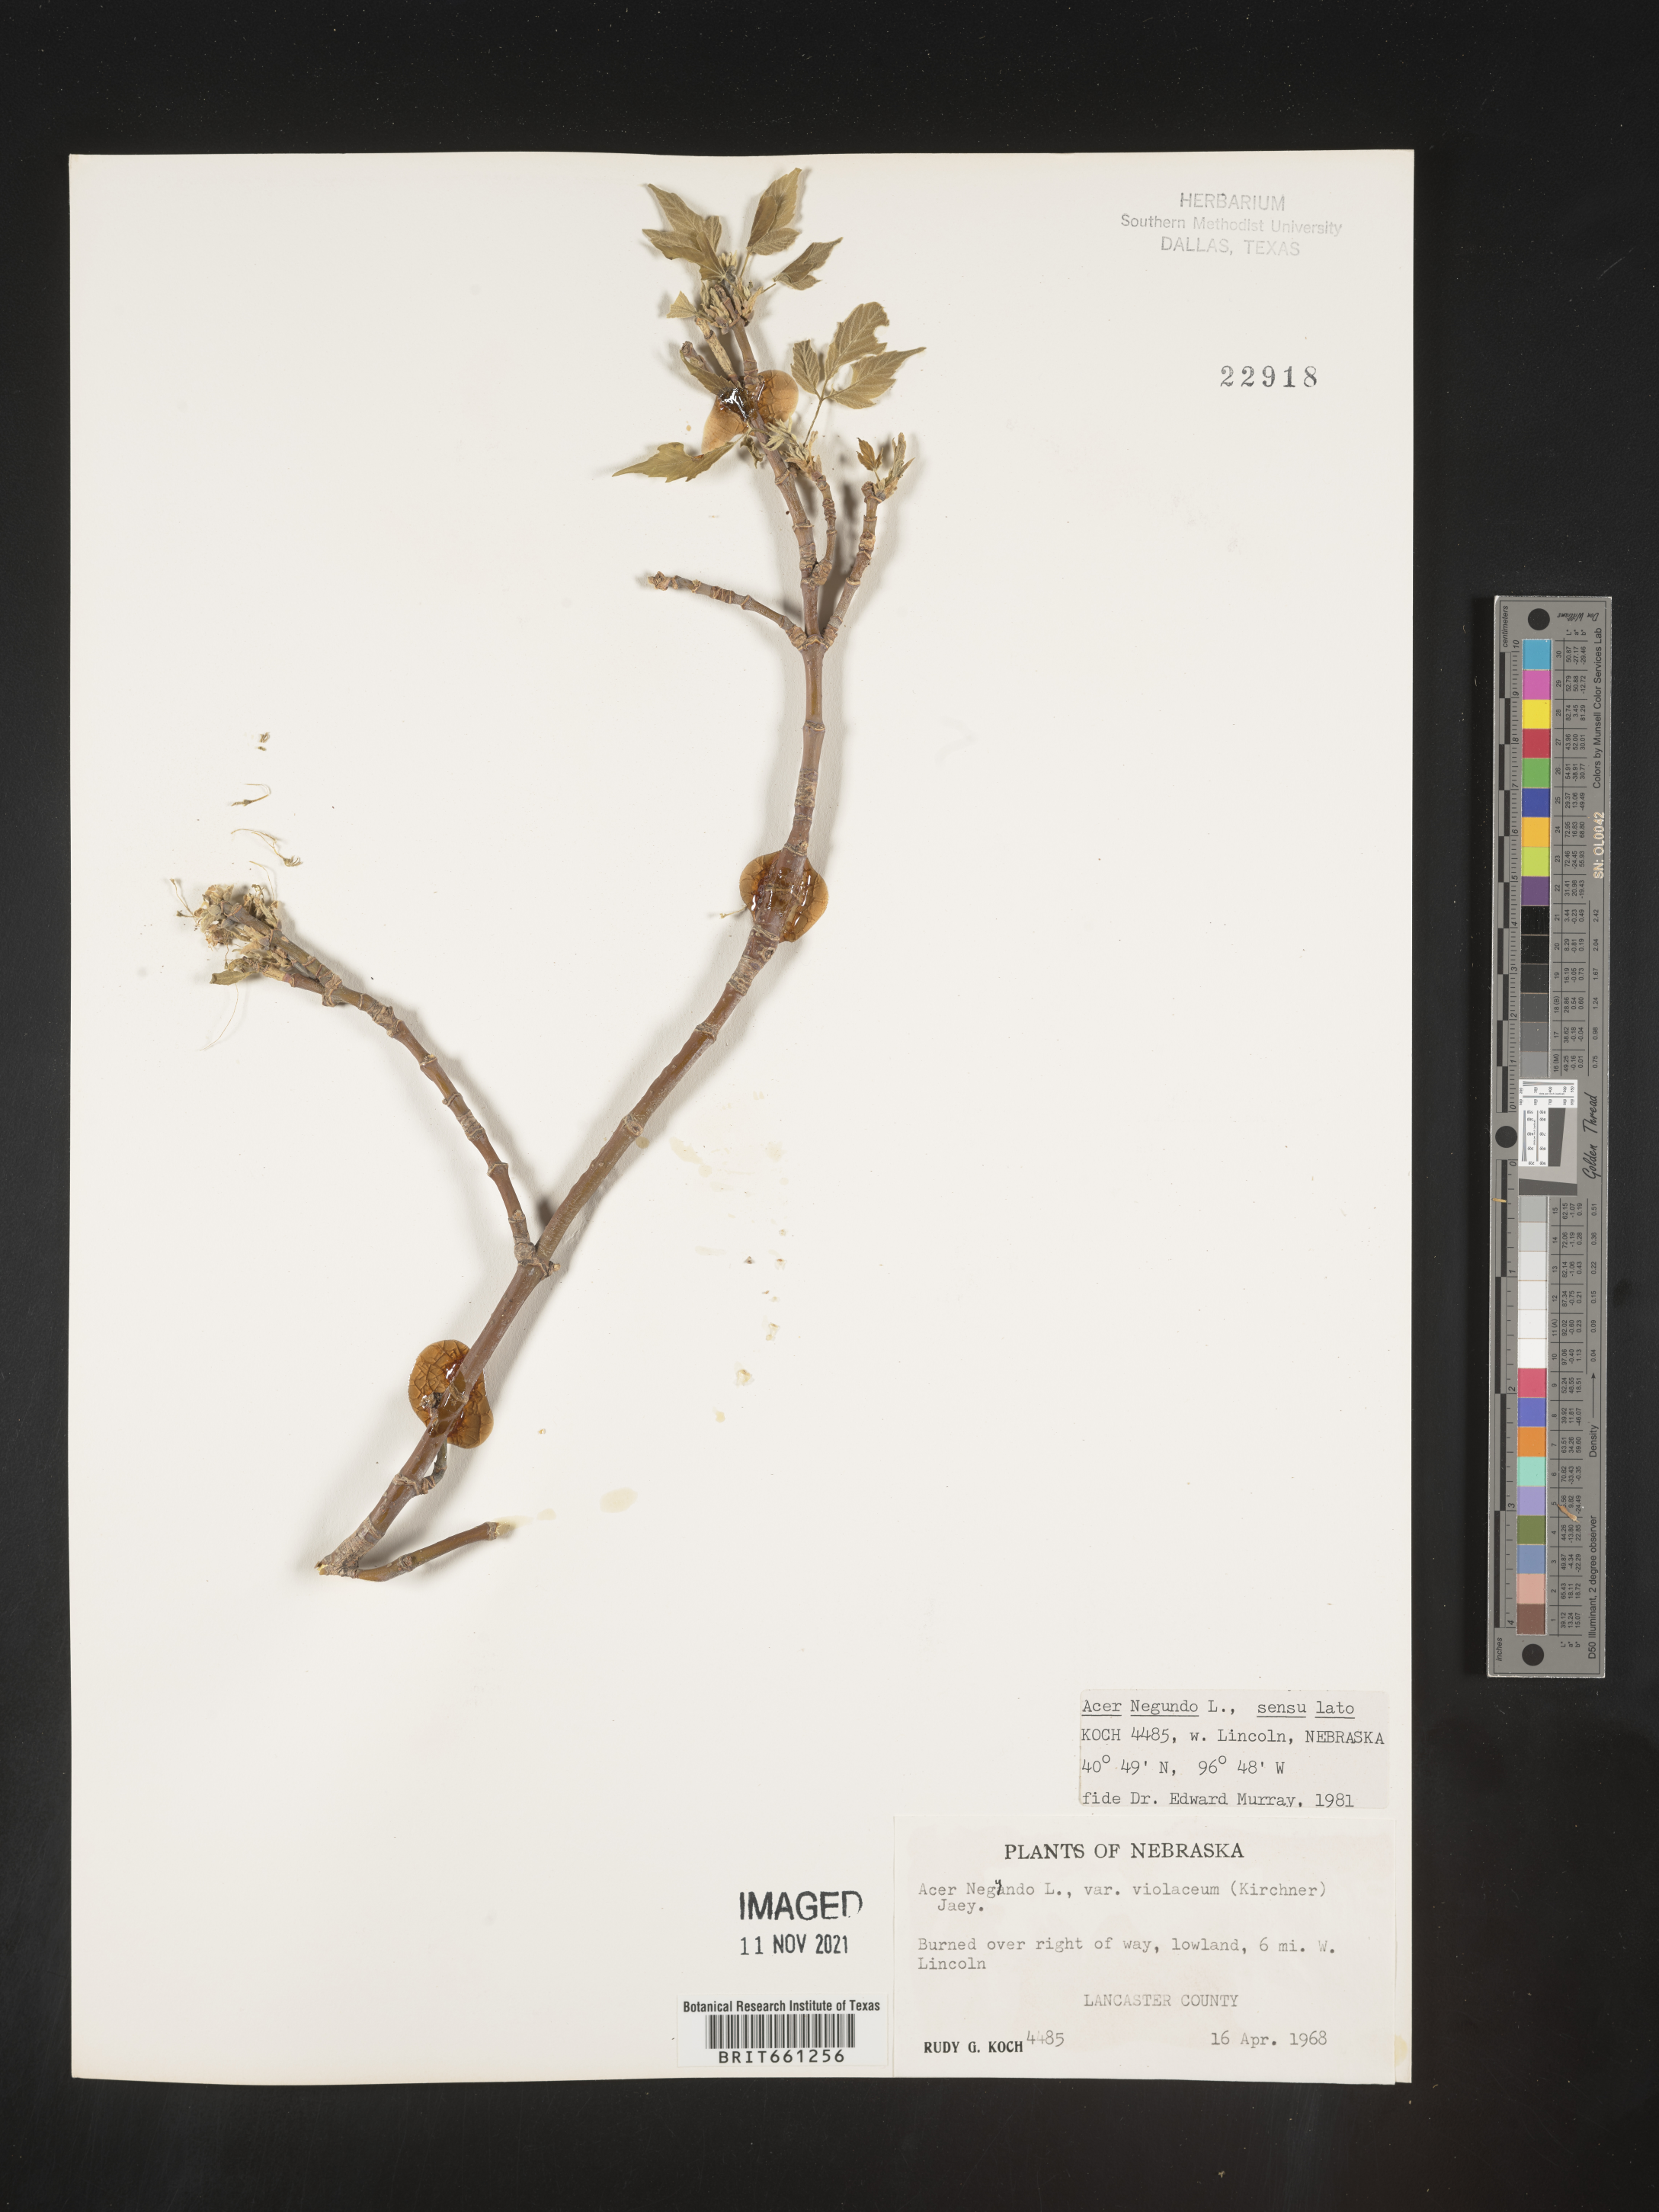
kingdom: Plantae
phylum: Tracheophyta
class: Magnoliopsida
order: Sapindales
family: Sapindaceae
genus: Acer
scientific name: Acer negundo
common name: Ashleaf maple
